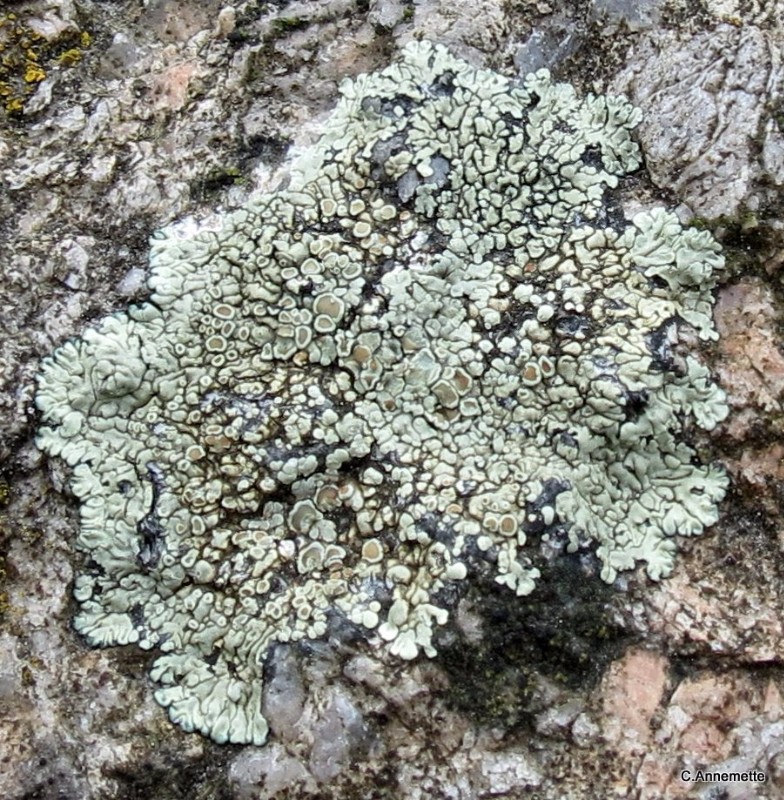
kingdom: Fungi
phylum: Ascomycota
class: Lecanoromycetes
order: Lecanorales
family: Lecanoraceae
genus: Protoparmeliopsis
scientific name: Protoparmeliopsis muralis
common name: randfliget kantskivelav
